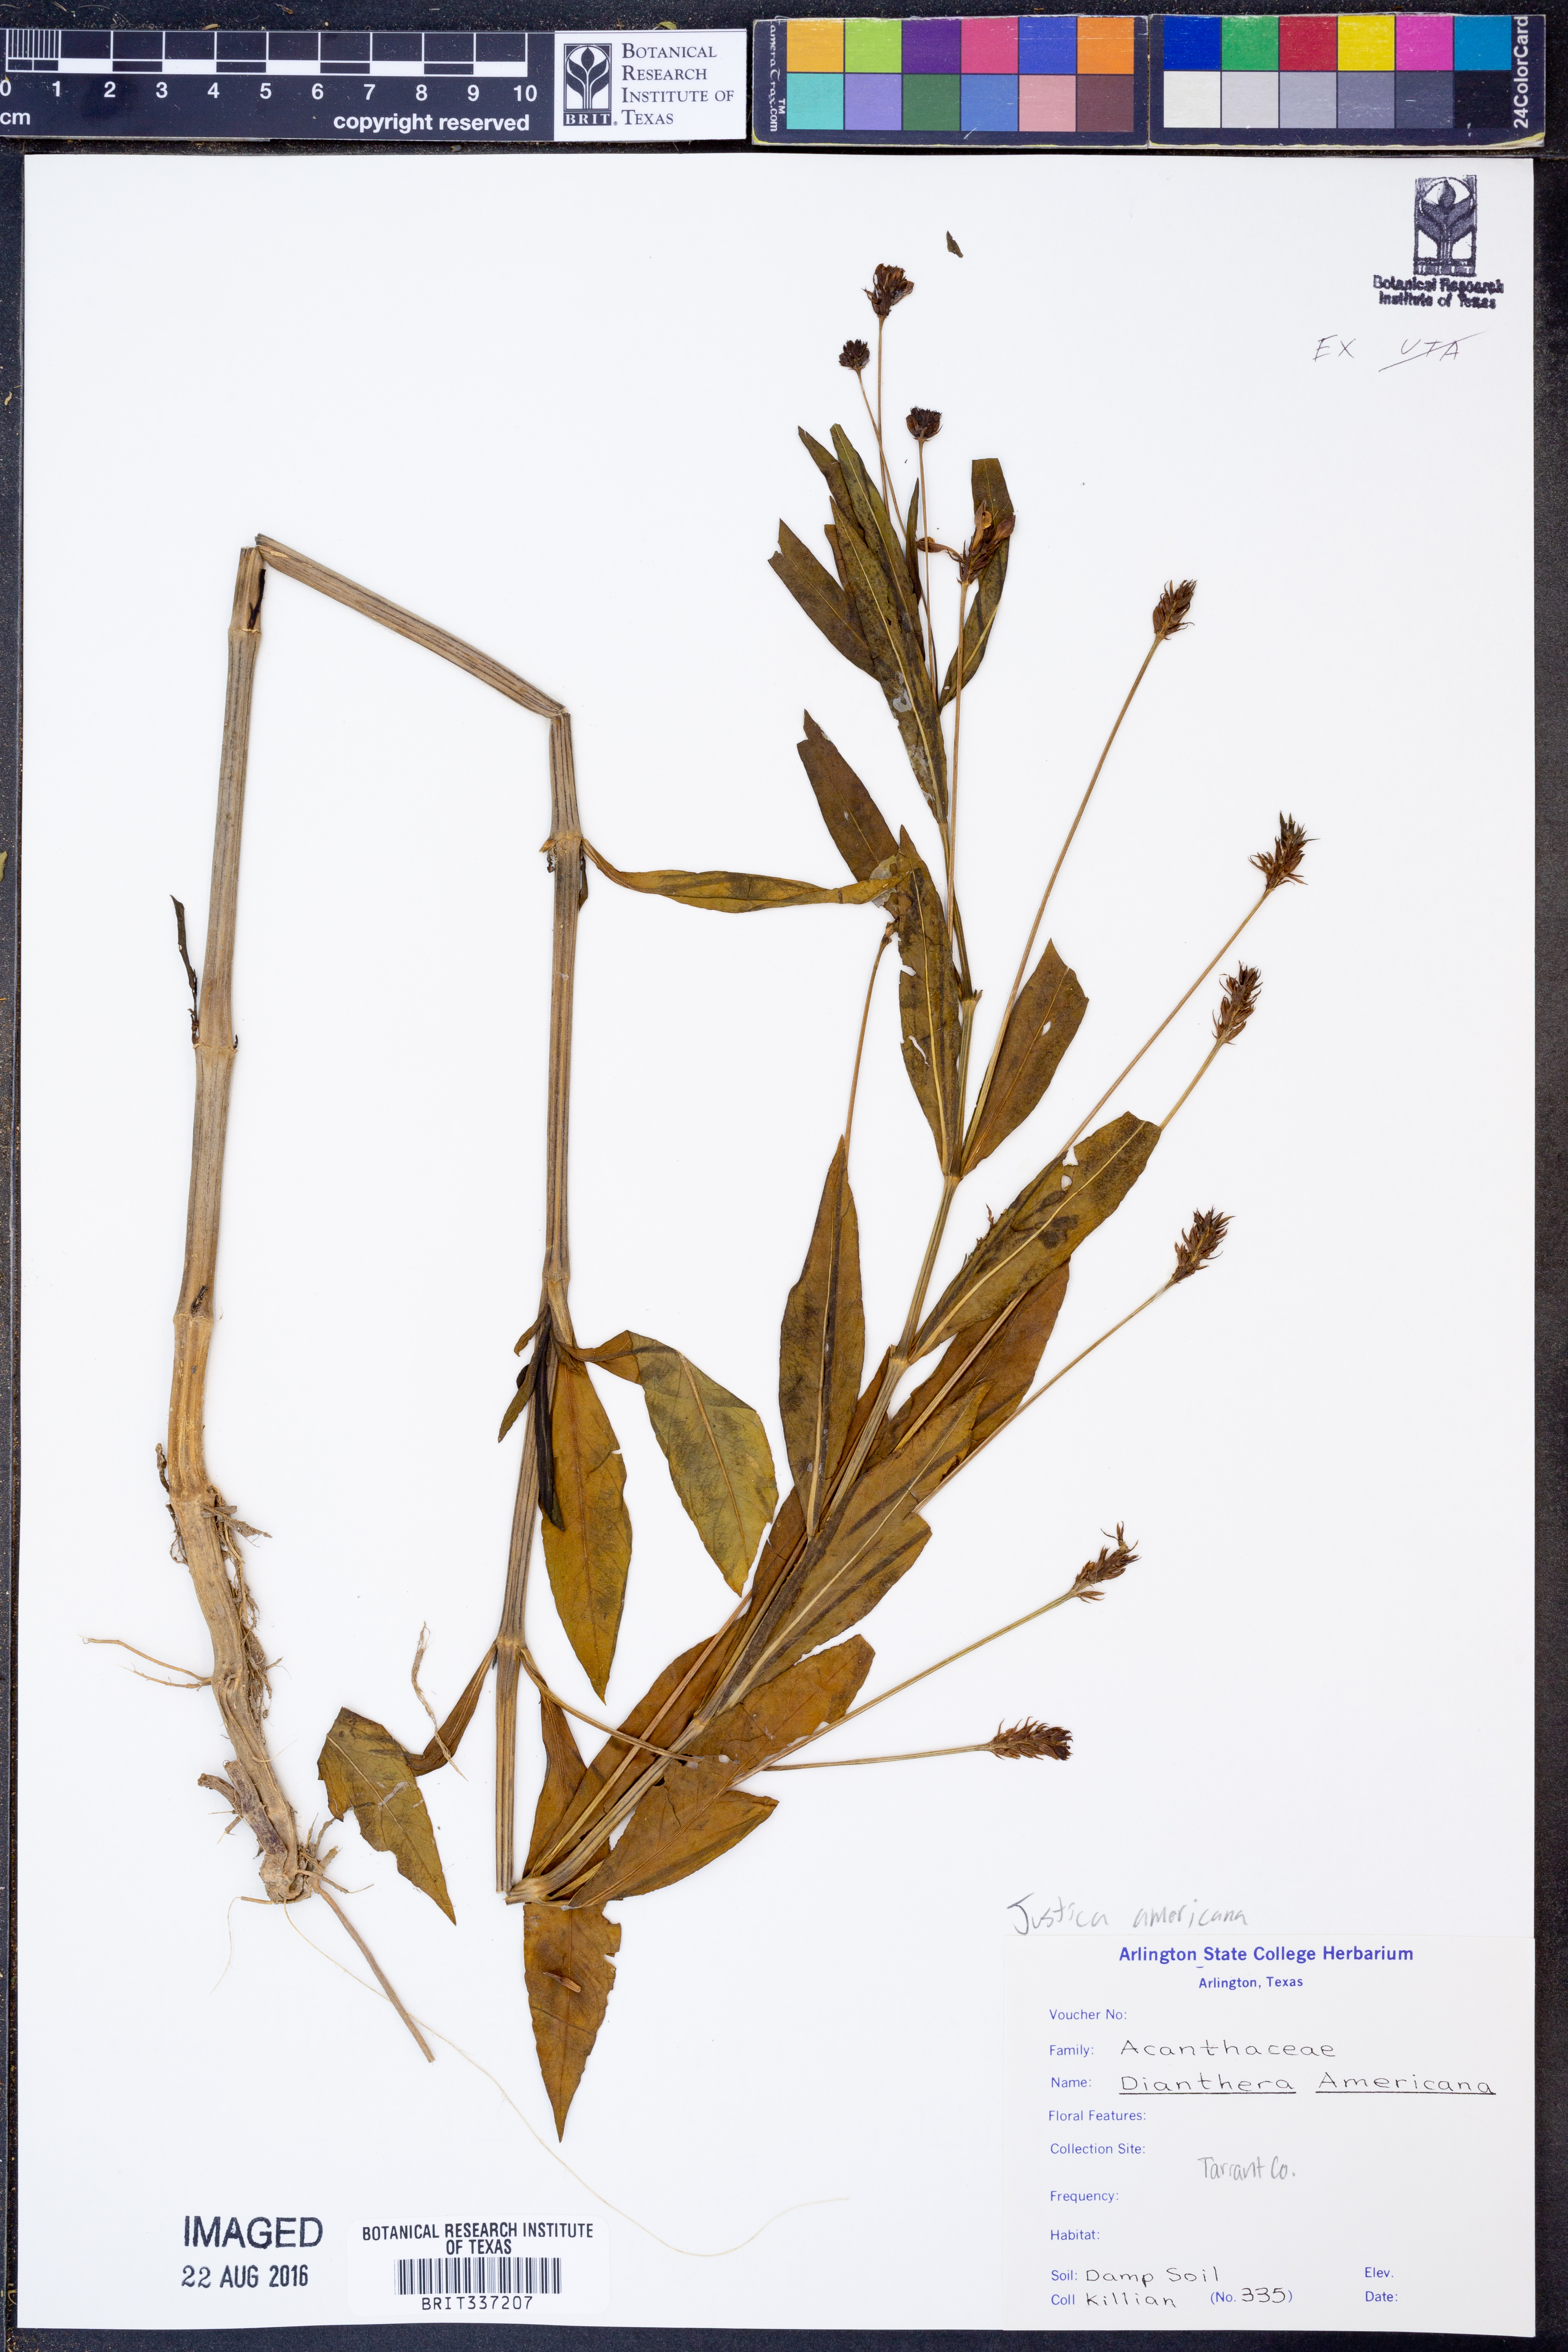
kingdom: Plantae
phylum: Tracheophyta
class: Magnoliopsida
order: Lamiales
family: Acanthaceae
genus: Dianthera
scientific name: Dianthera americana
